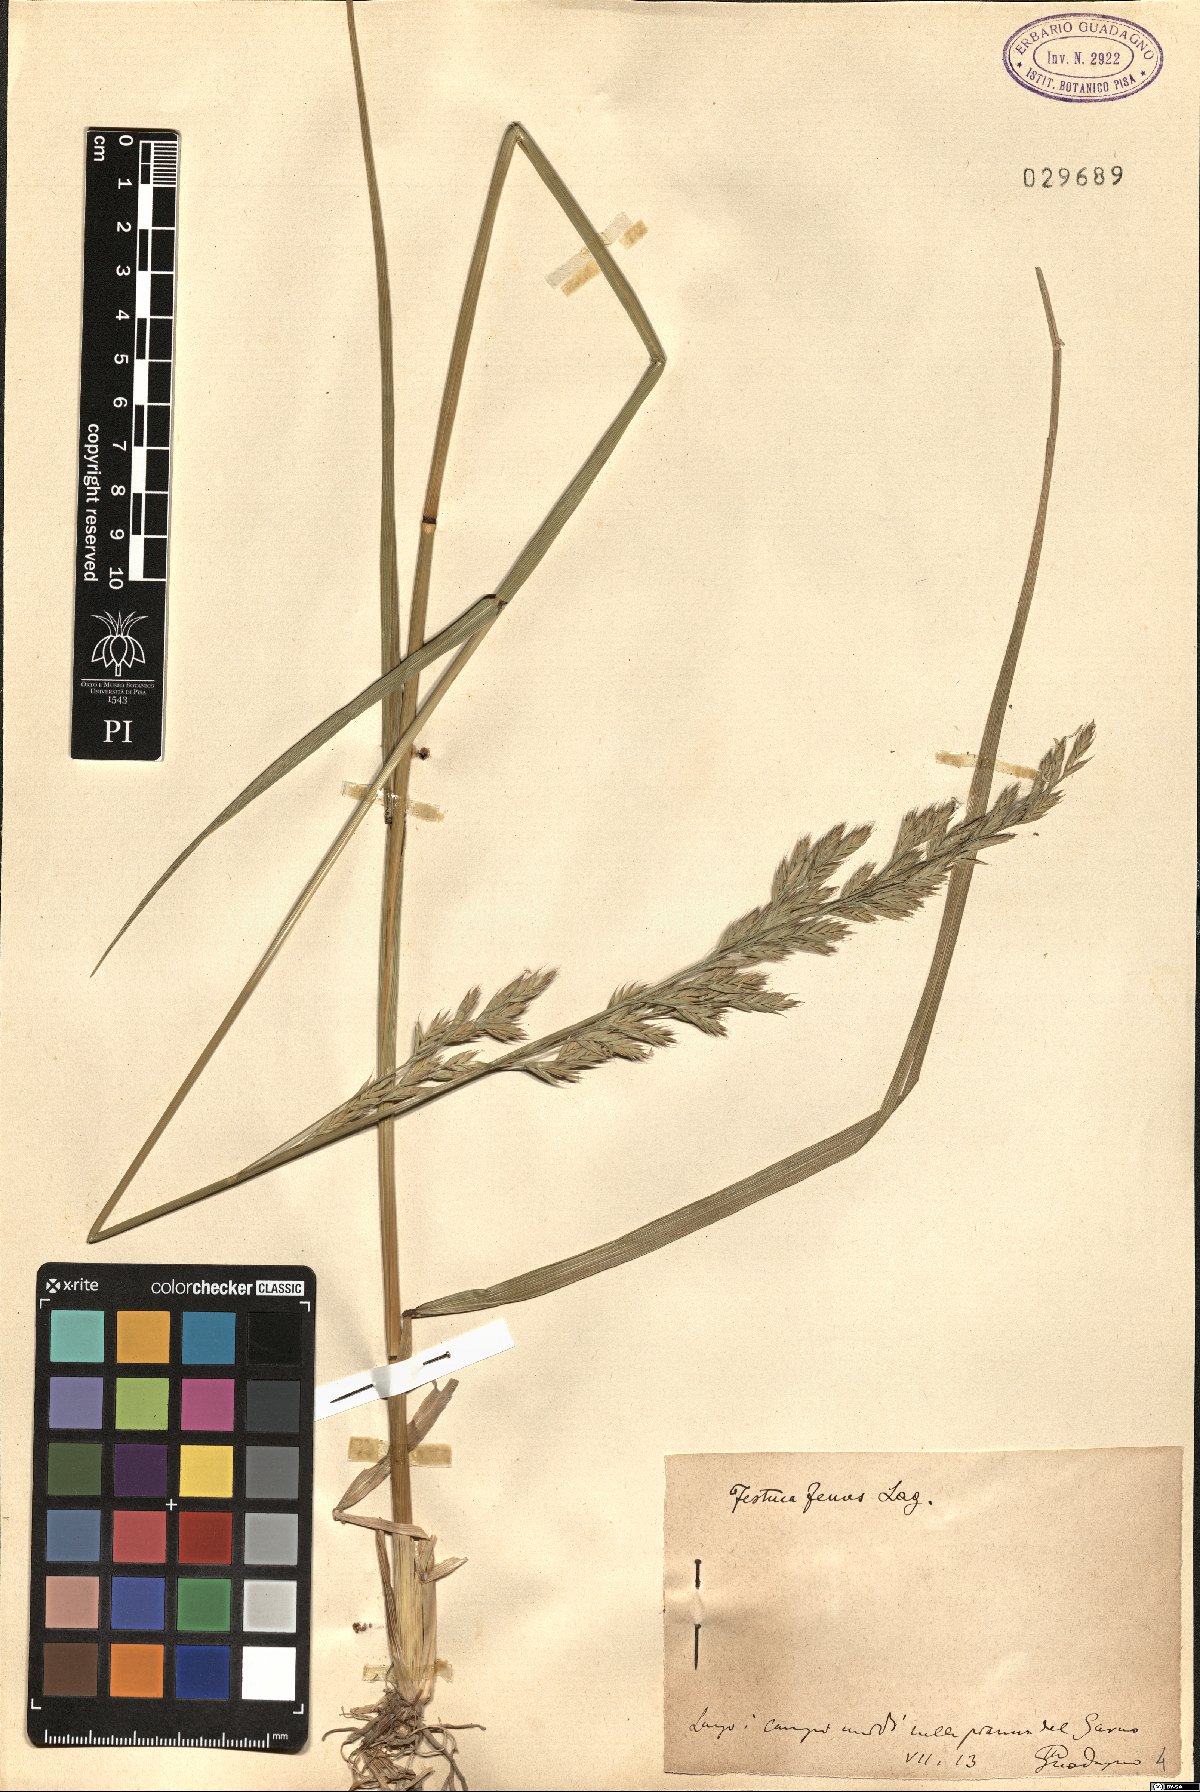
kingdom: Plantae
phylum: Tracheophyta
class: Liliopsida
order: Poales
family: Poaceae
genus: Lolium
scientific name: Lolium interruptum
